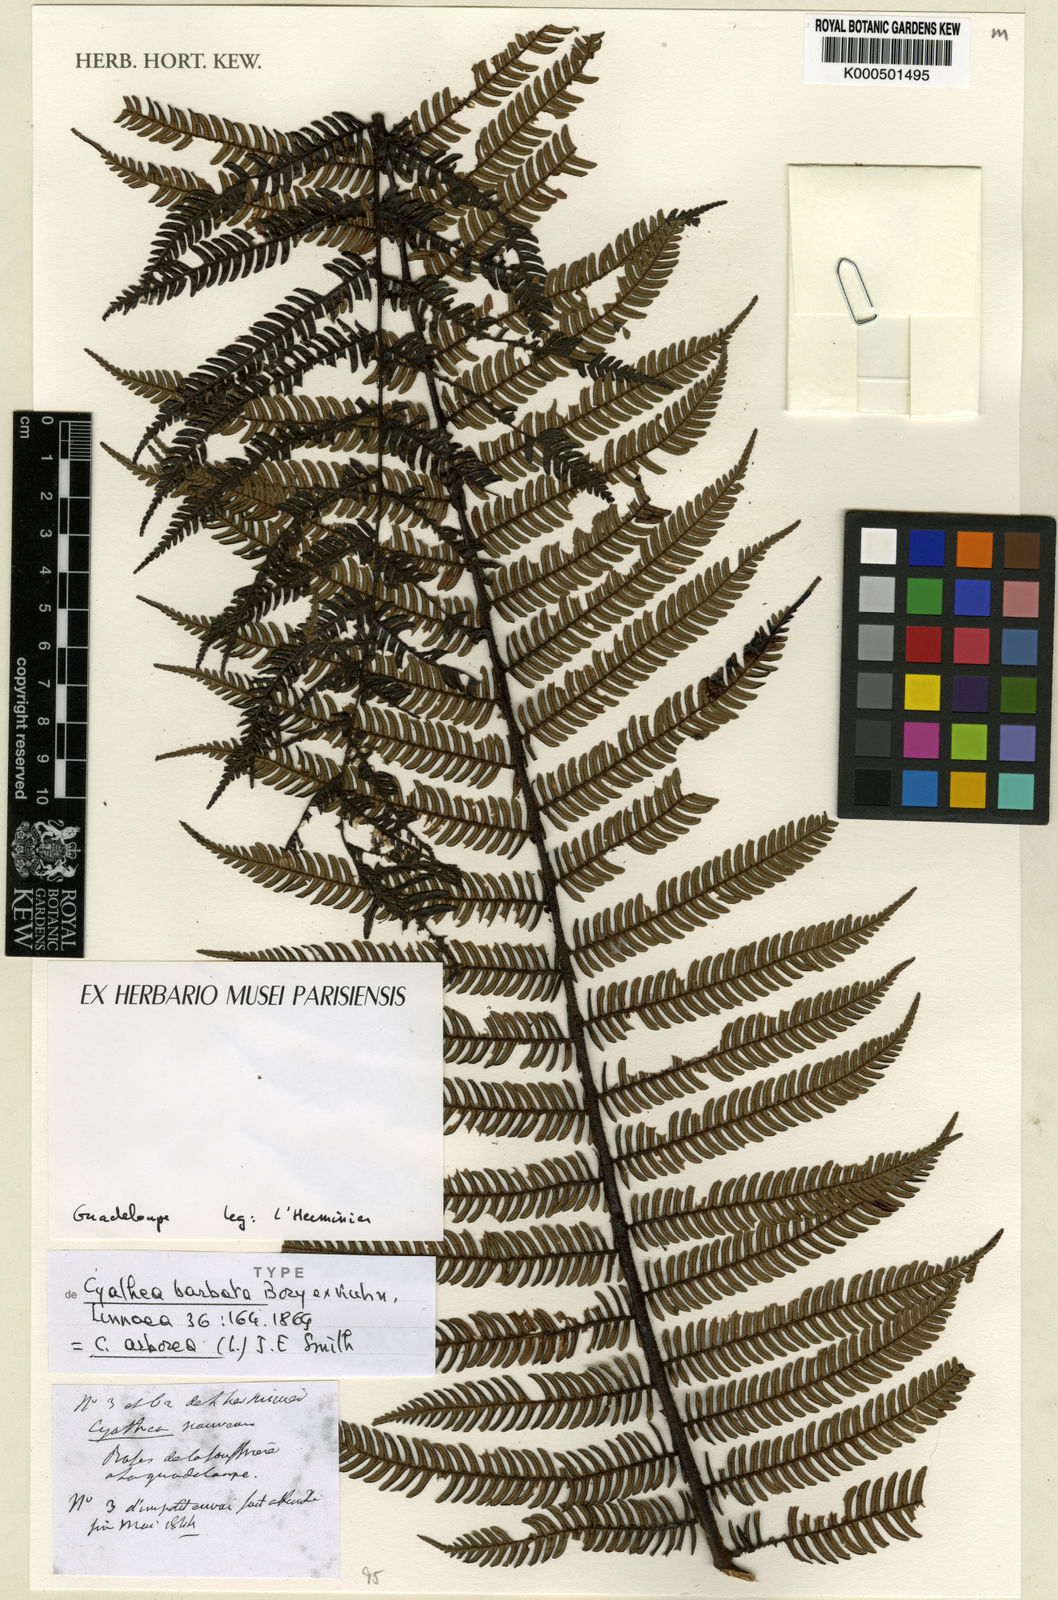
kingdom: Plantae
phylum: Tracheophyta
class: Polypodiopsida
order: Cyatheales
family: Cyatheaceae
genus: Cyathea
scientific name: Cyathea arborea
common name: West indian treefern
